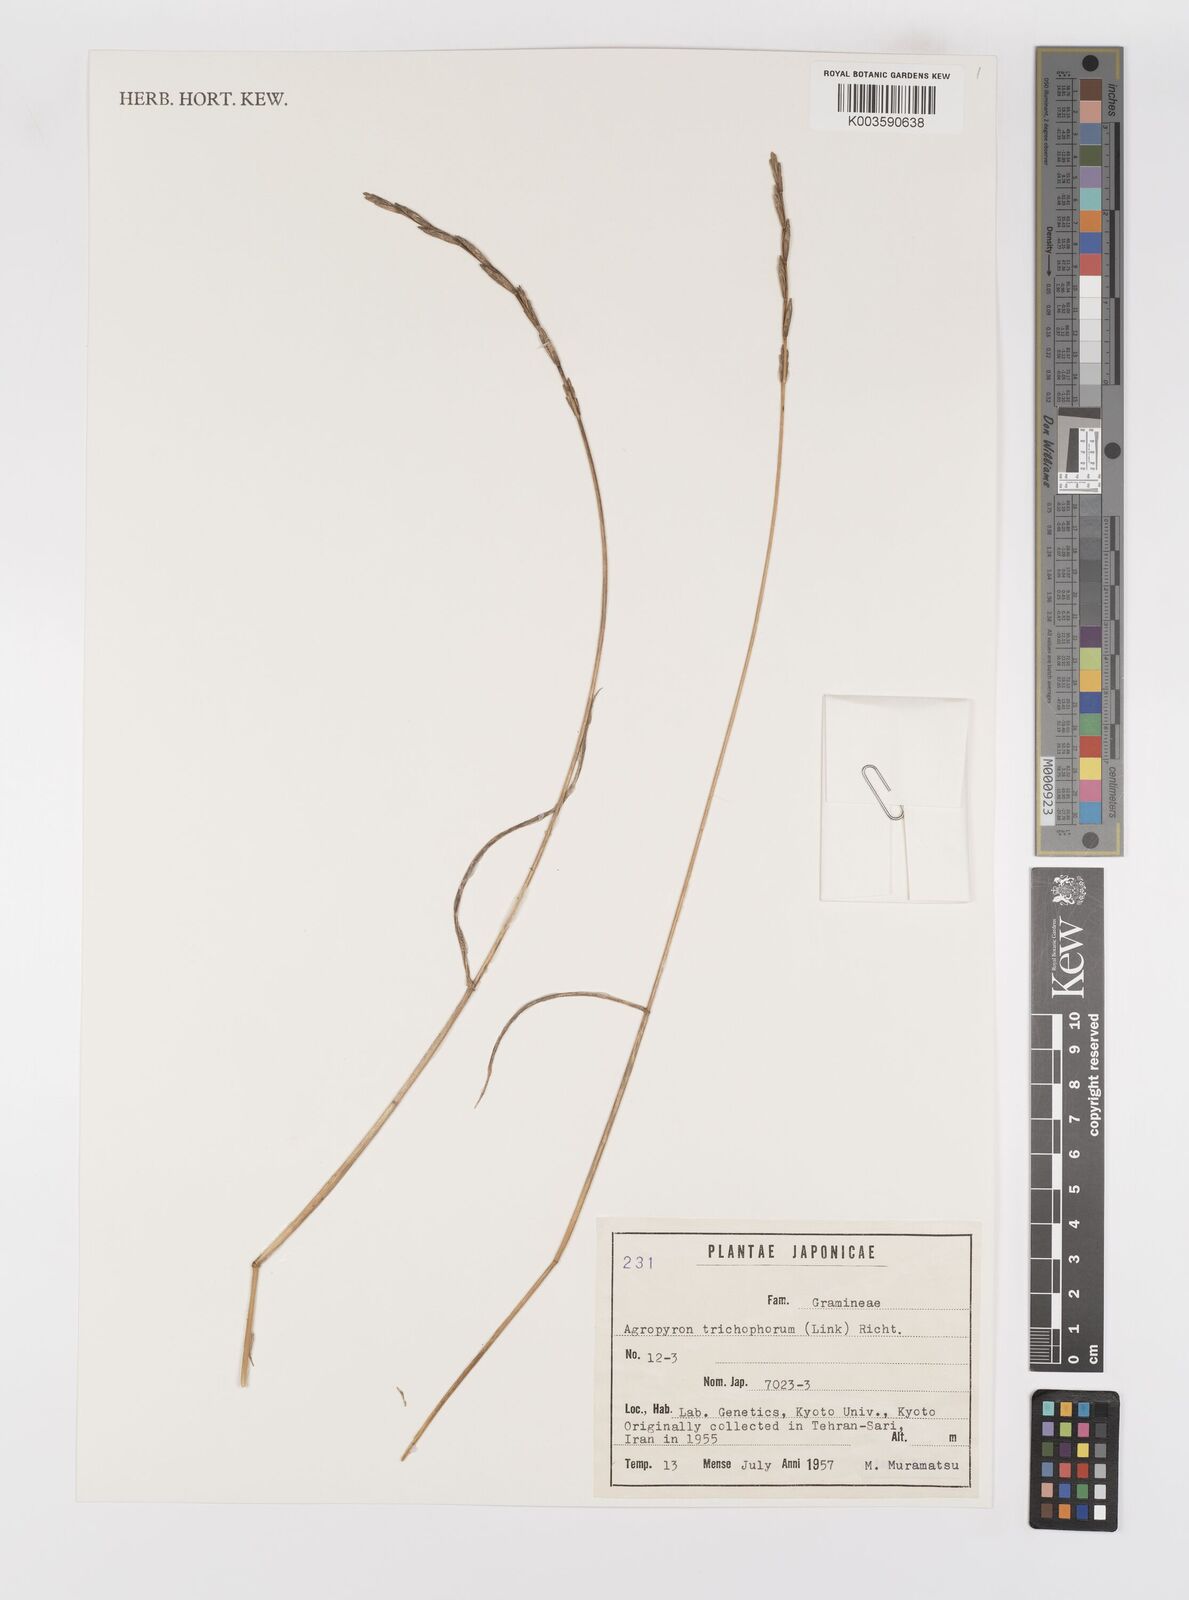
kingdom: Plantae
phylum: Tracheophyta
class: Liliopsida
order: Poales
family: Poaceae
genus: Thinopyrum
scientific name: Thinopyrum intermedium
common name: Intermediate wheatgrass
